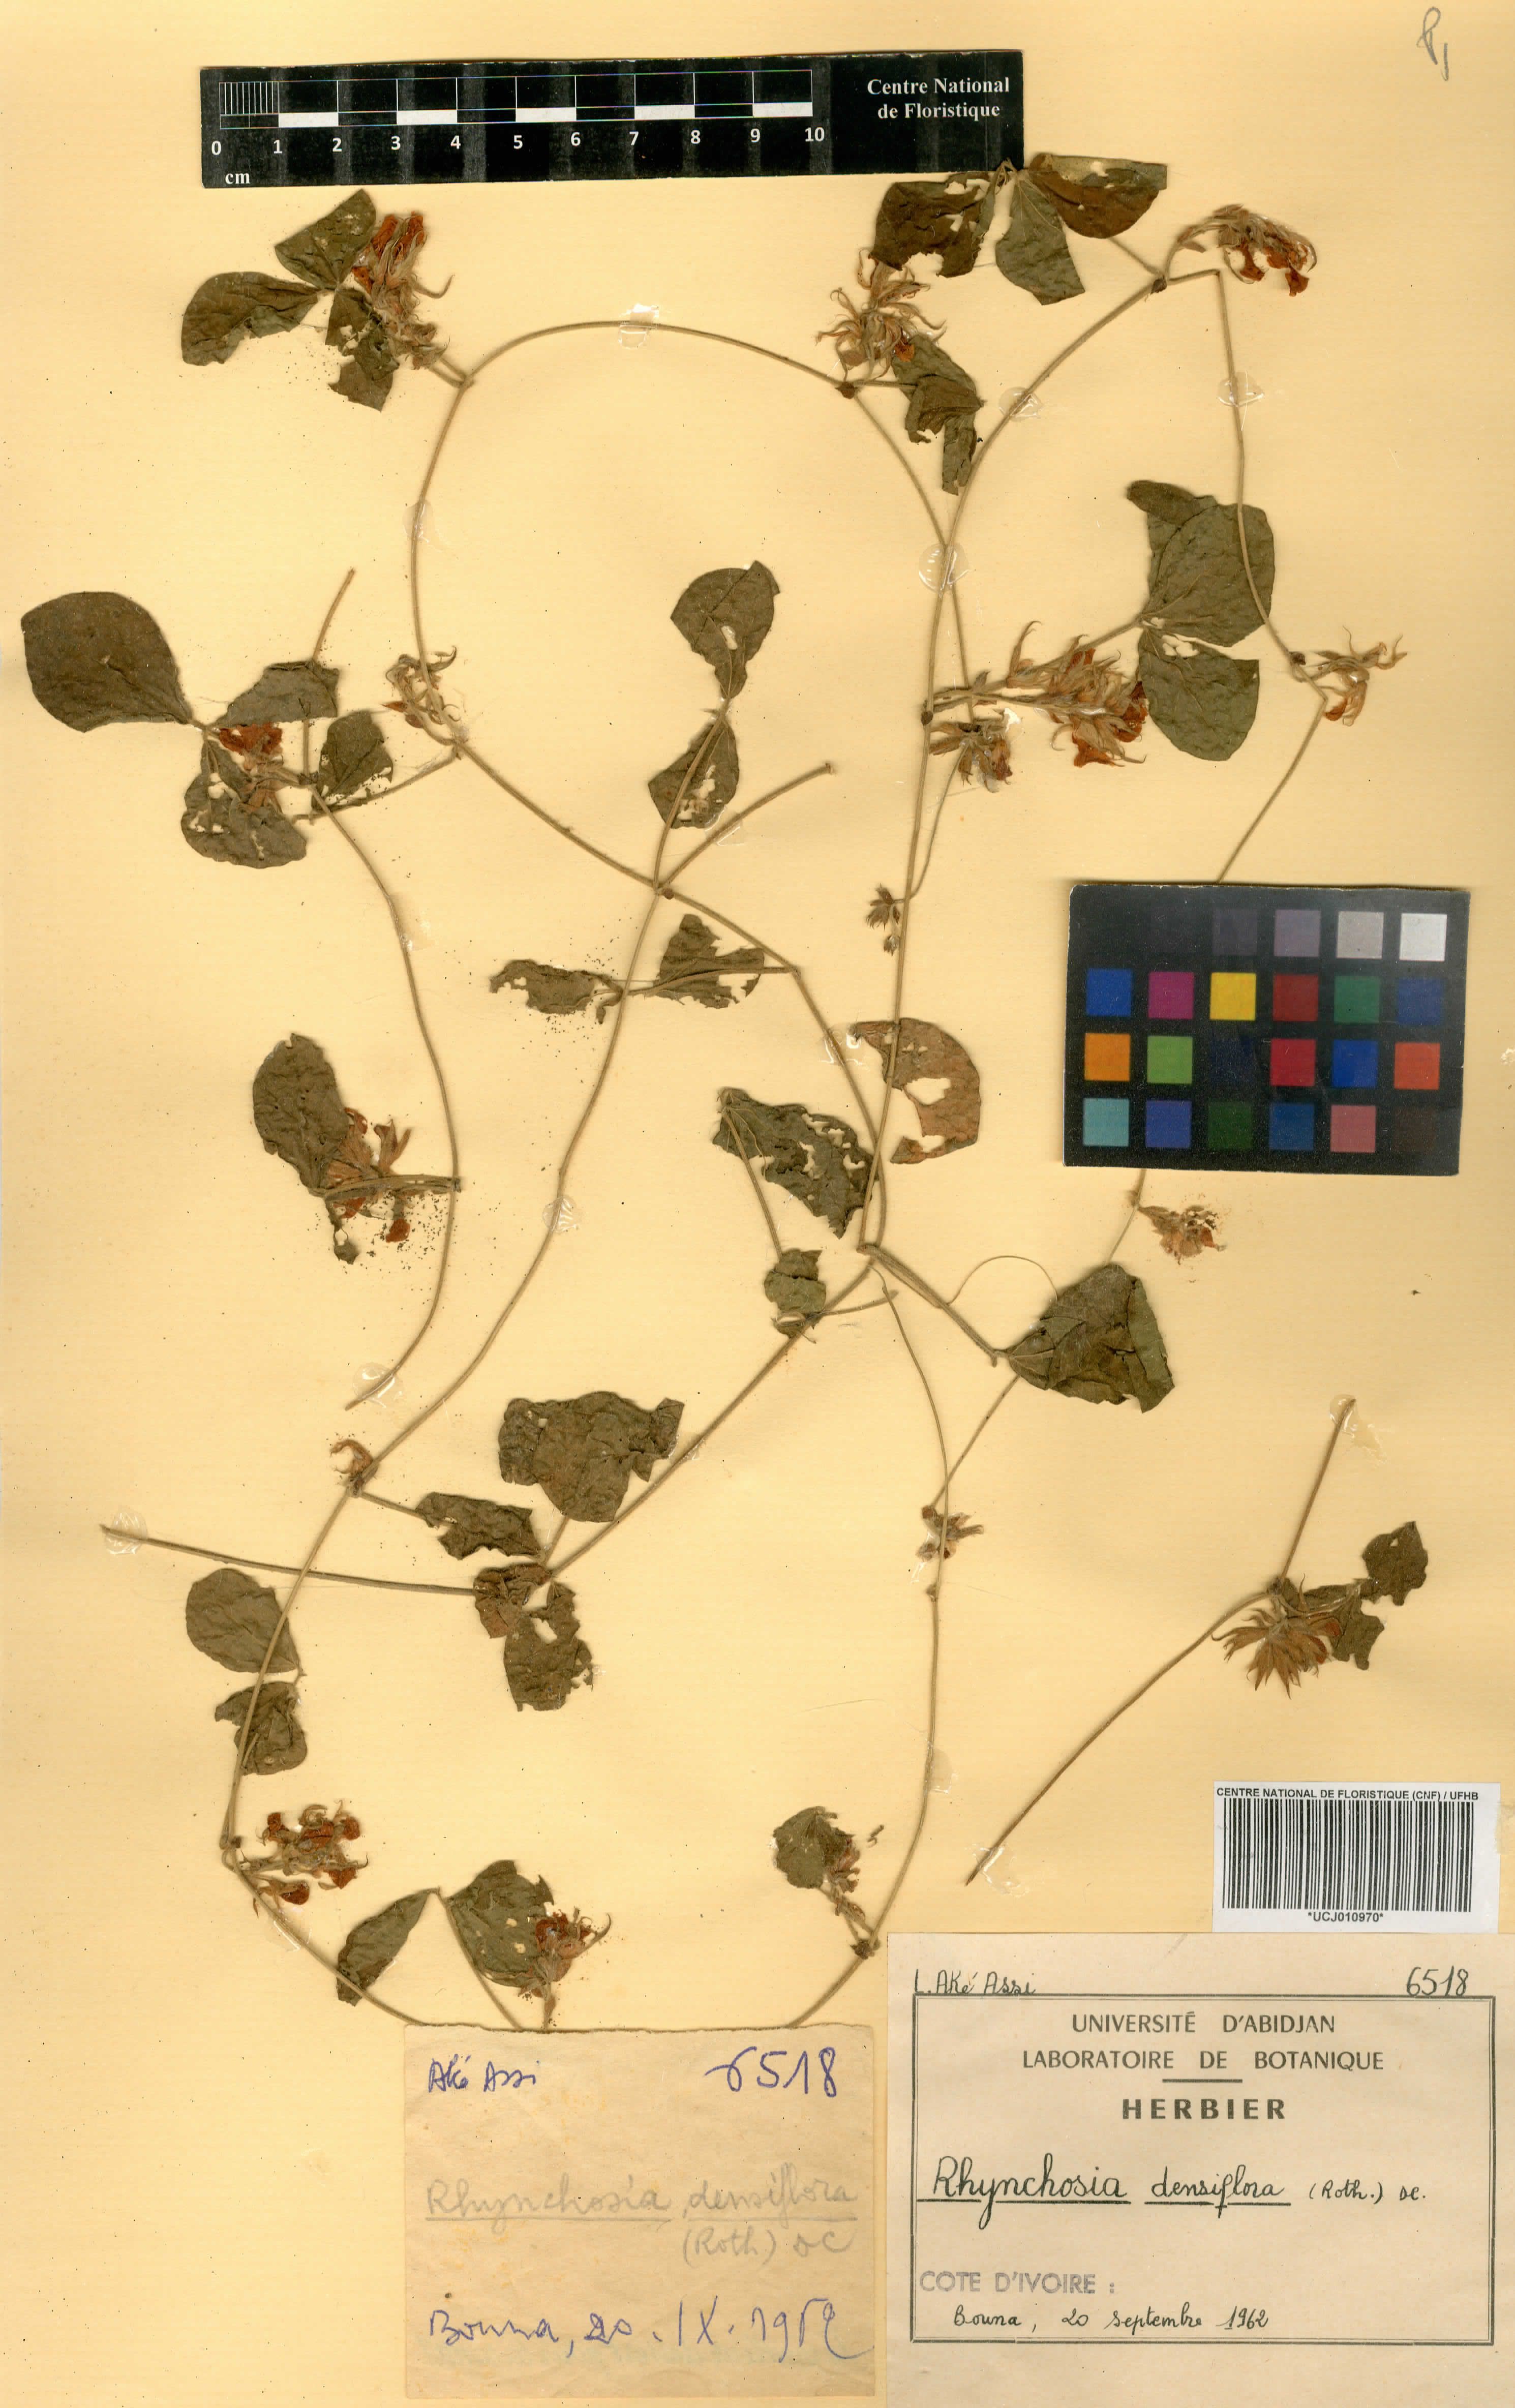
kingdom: Plantae
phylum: Tracheophyta
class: Magnoliopsida
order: Fabales
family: Fabaceae
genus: Rhynchosia
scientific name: Rhynchosia densiflora
